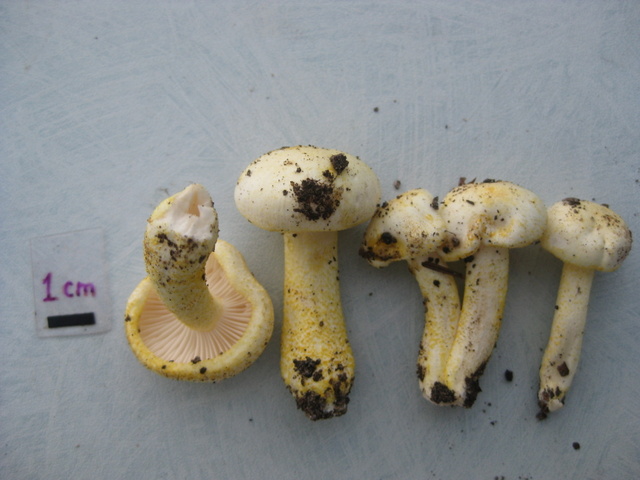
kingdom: Fungi
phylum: Basidiomycota
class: Agaricomycetes
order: Agaricales
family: Hygrophoraceae
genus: Hygrophorus
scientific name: Hygrophorus chrysodon
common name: gulfnugget sneglehat
